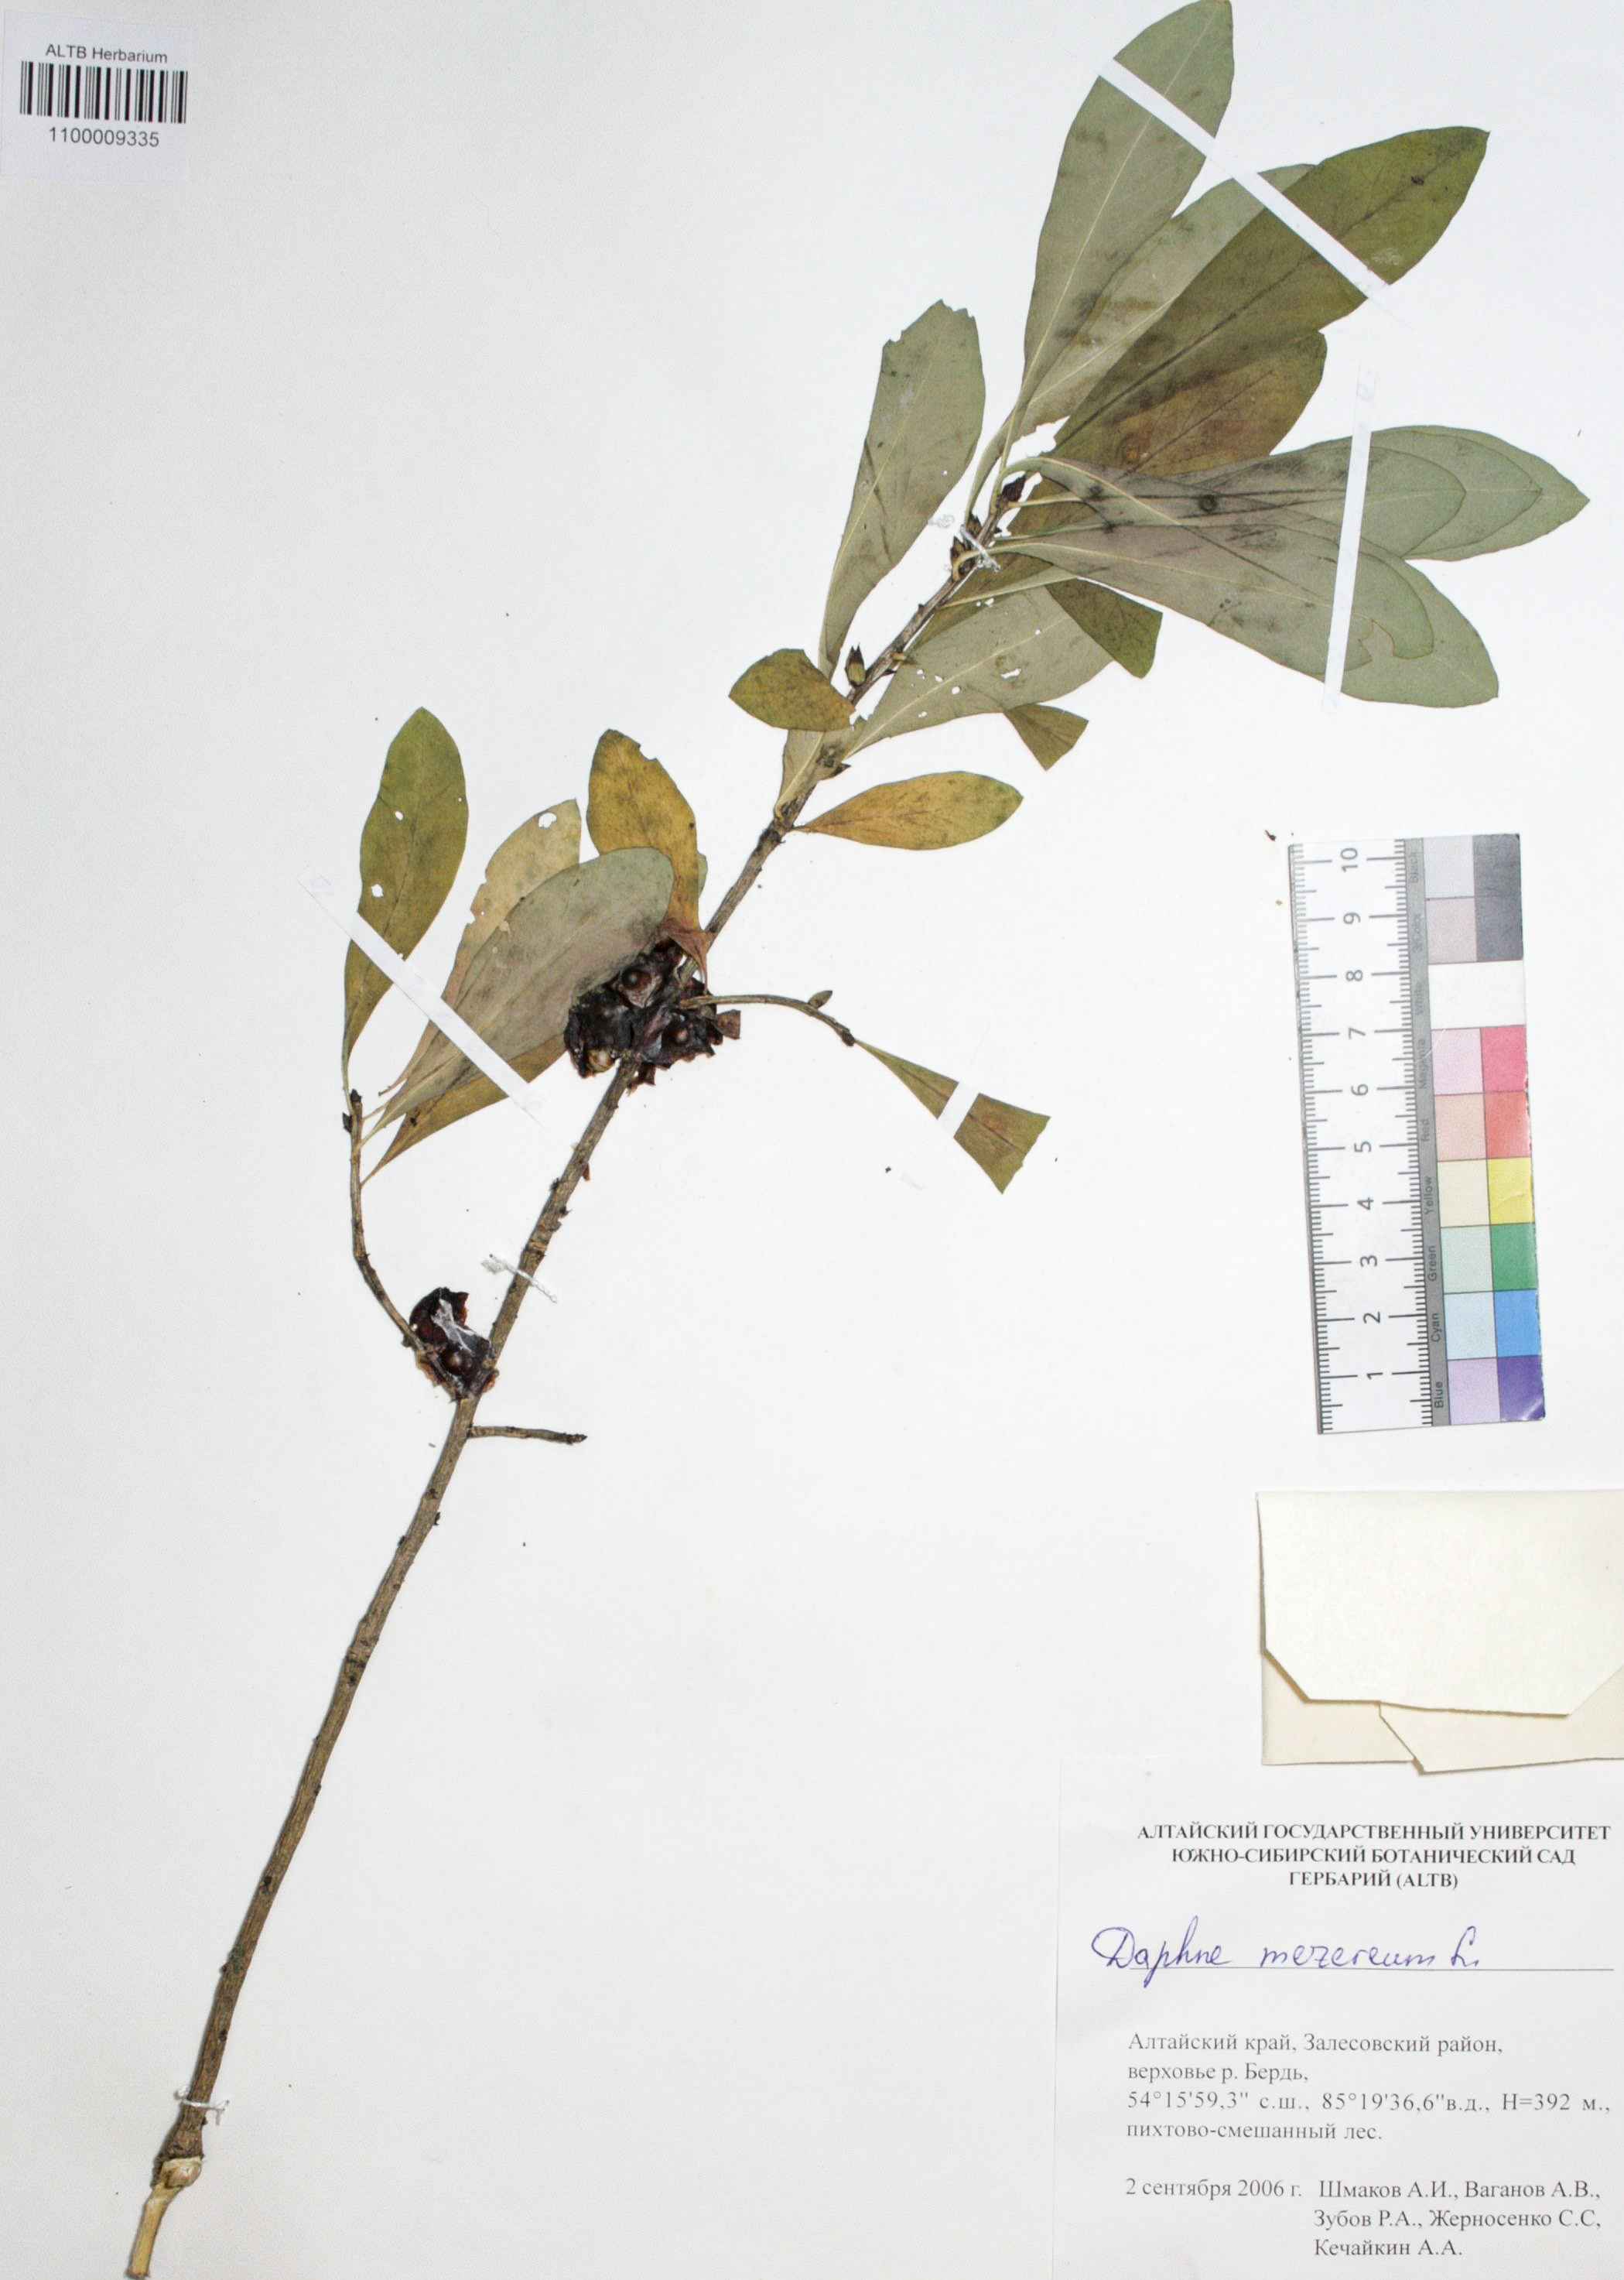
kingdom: Plantae
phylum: Tracheophyta
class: Magnoliopsida
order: Malvales
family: Thymelaeaceae
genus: Daphne
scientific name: Daphne mezereum
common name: Mezereon
